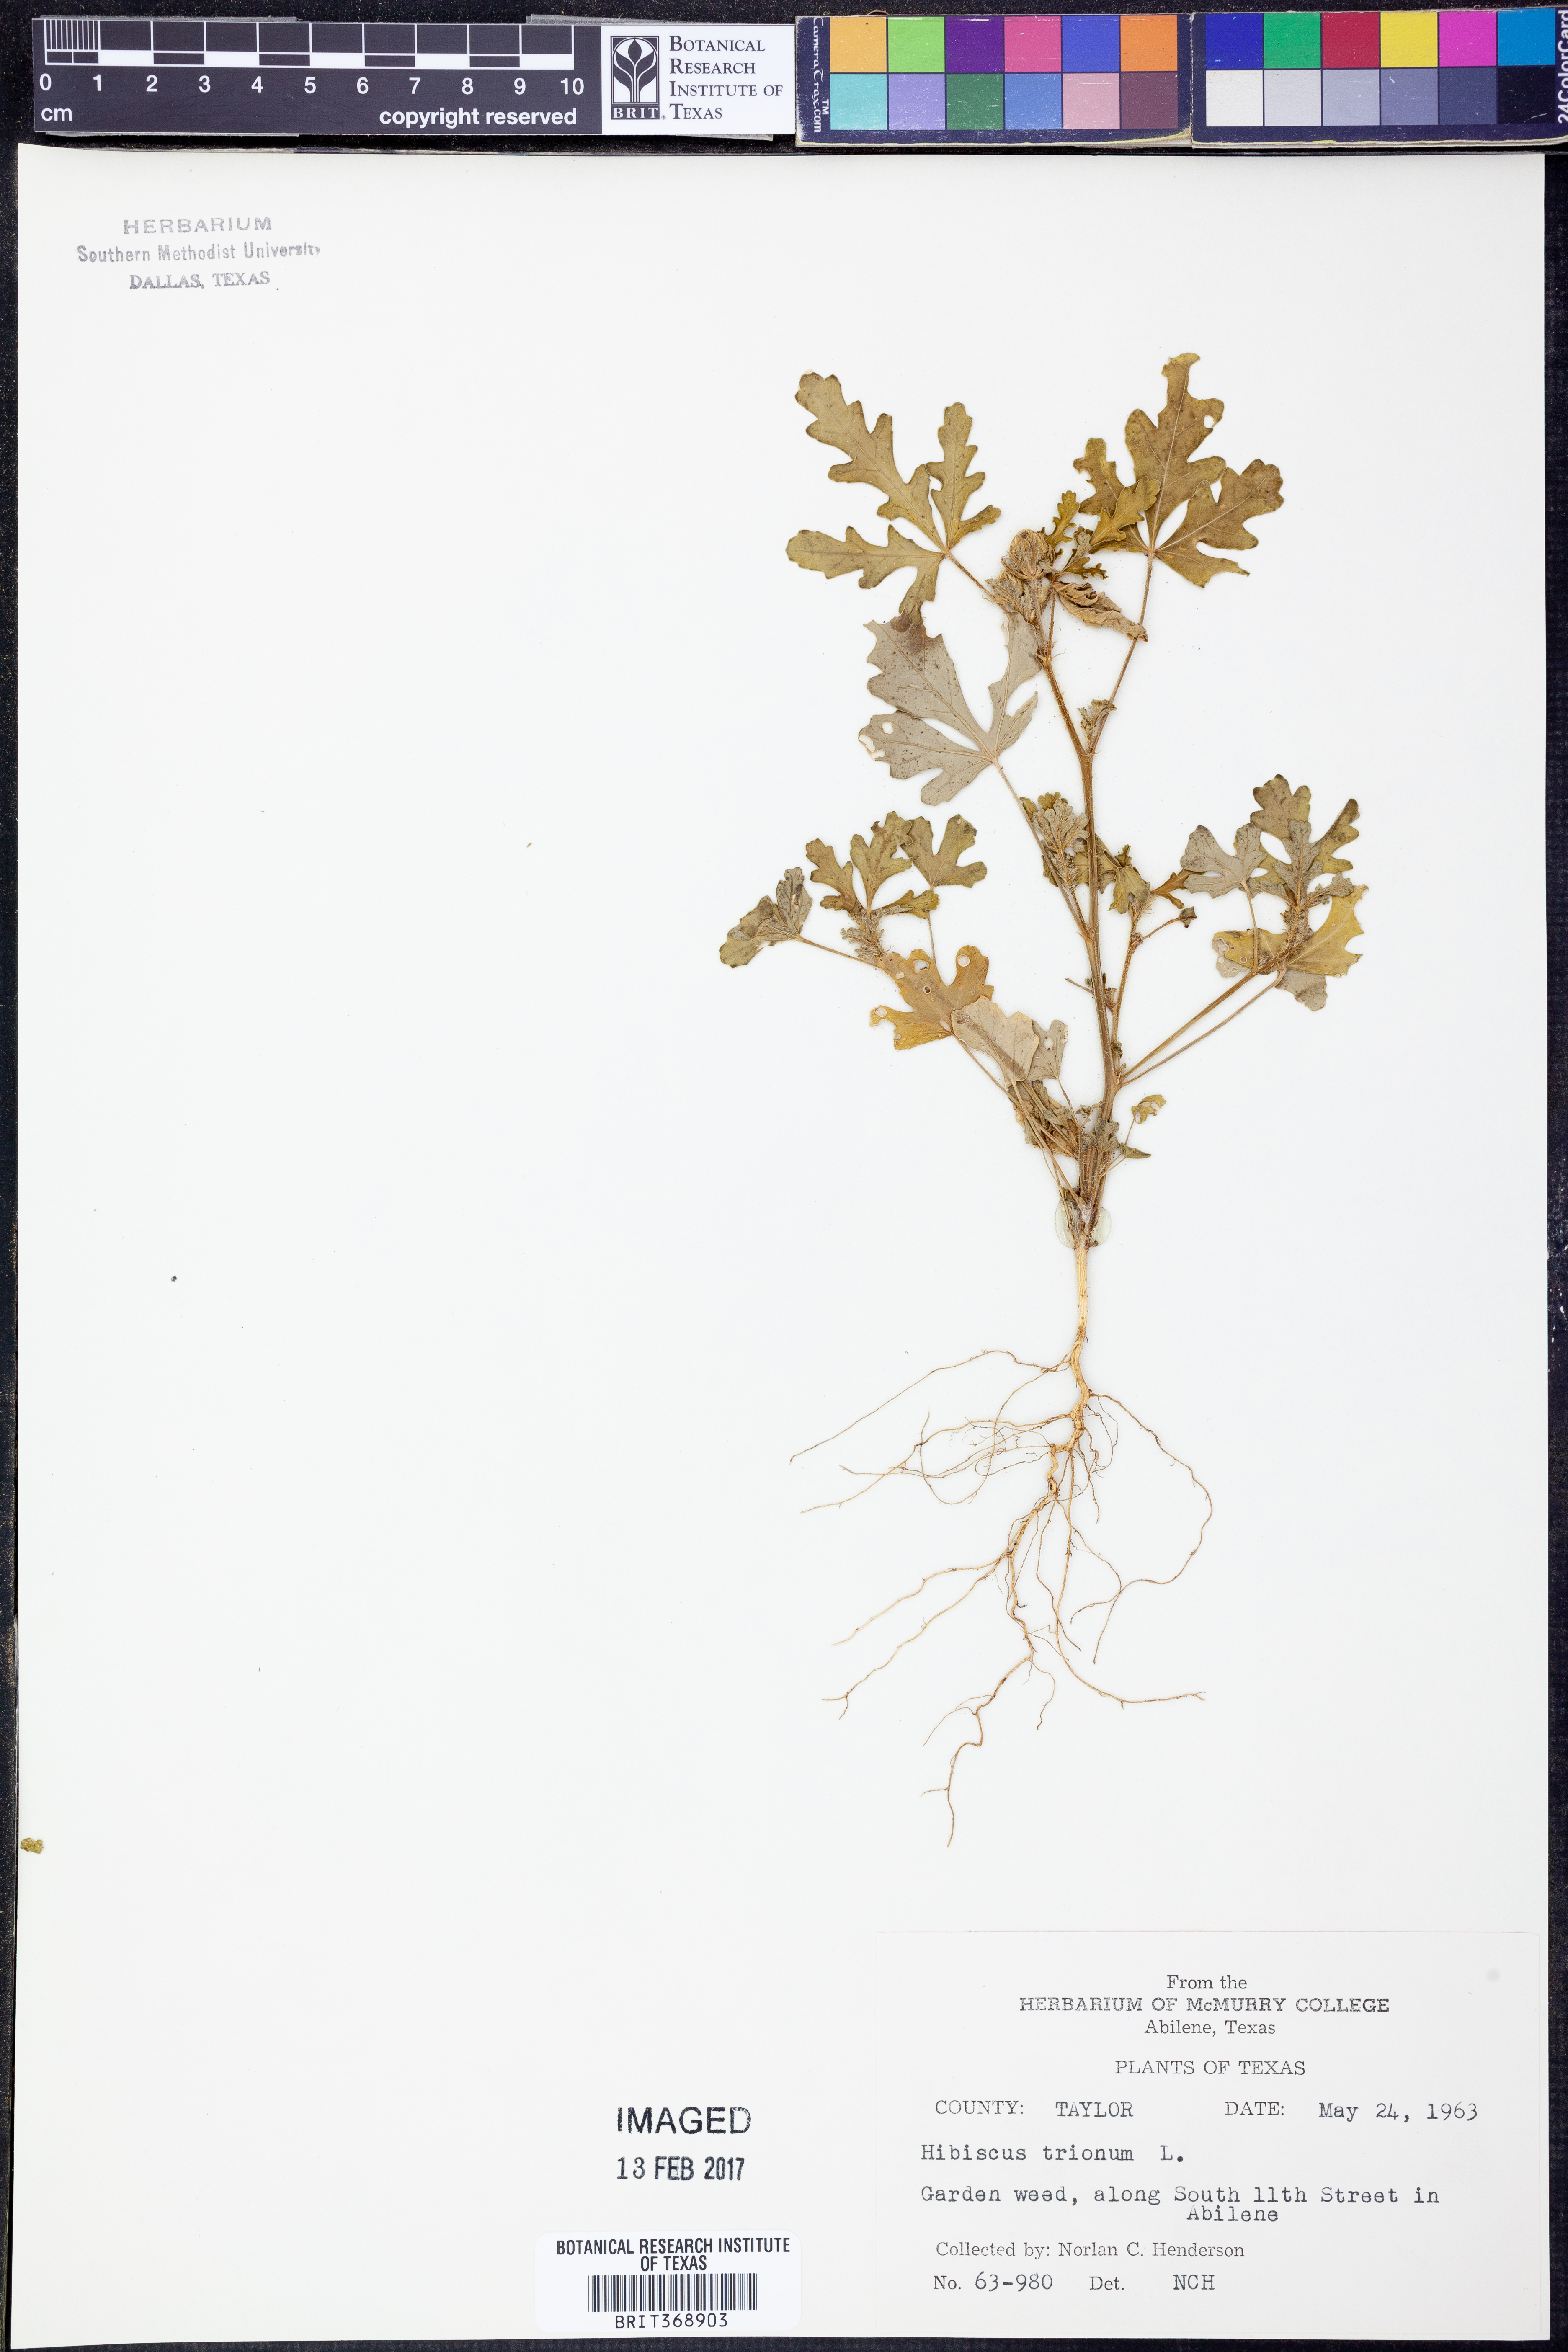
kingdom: Plantae
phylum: Tracheophyta
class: Magnoliopsida
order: Malvales
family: Malvaceae
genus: Hibiscus
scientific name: Hibiscus trionum
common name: Bladder ketmia
